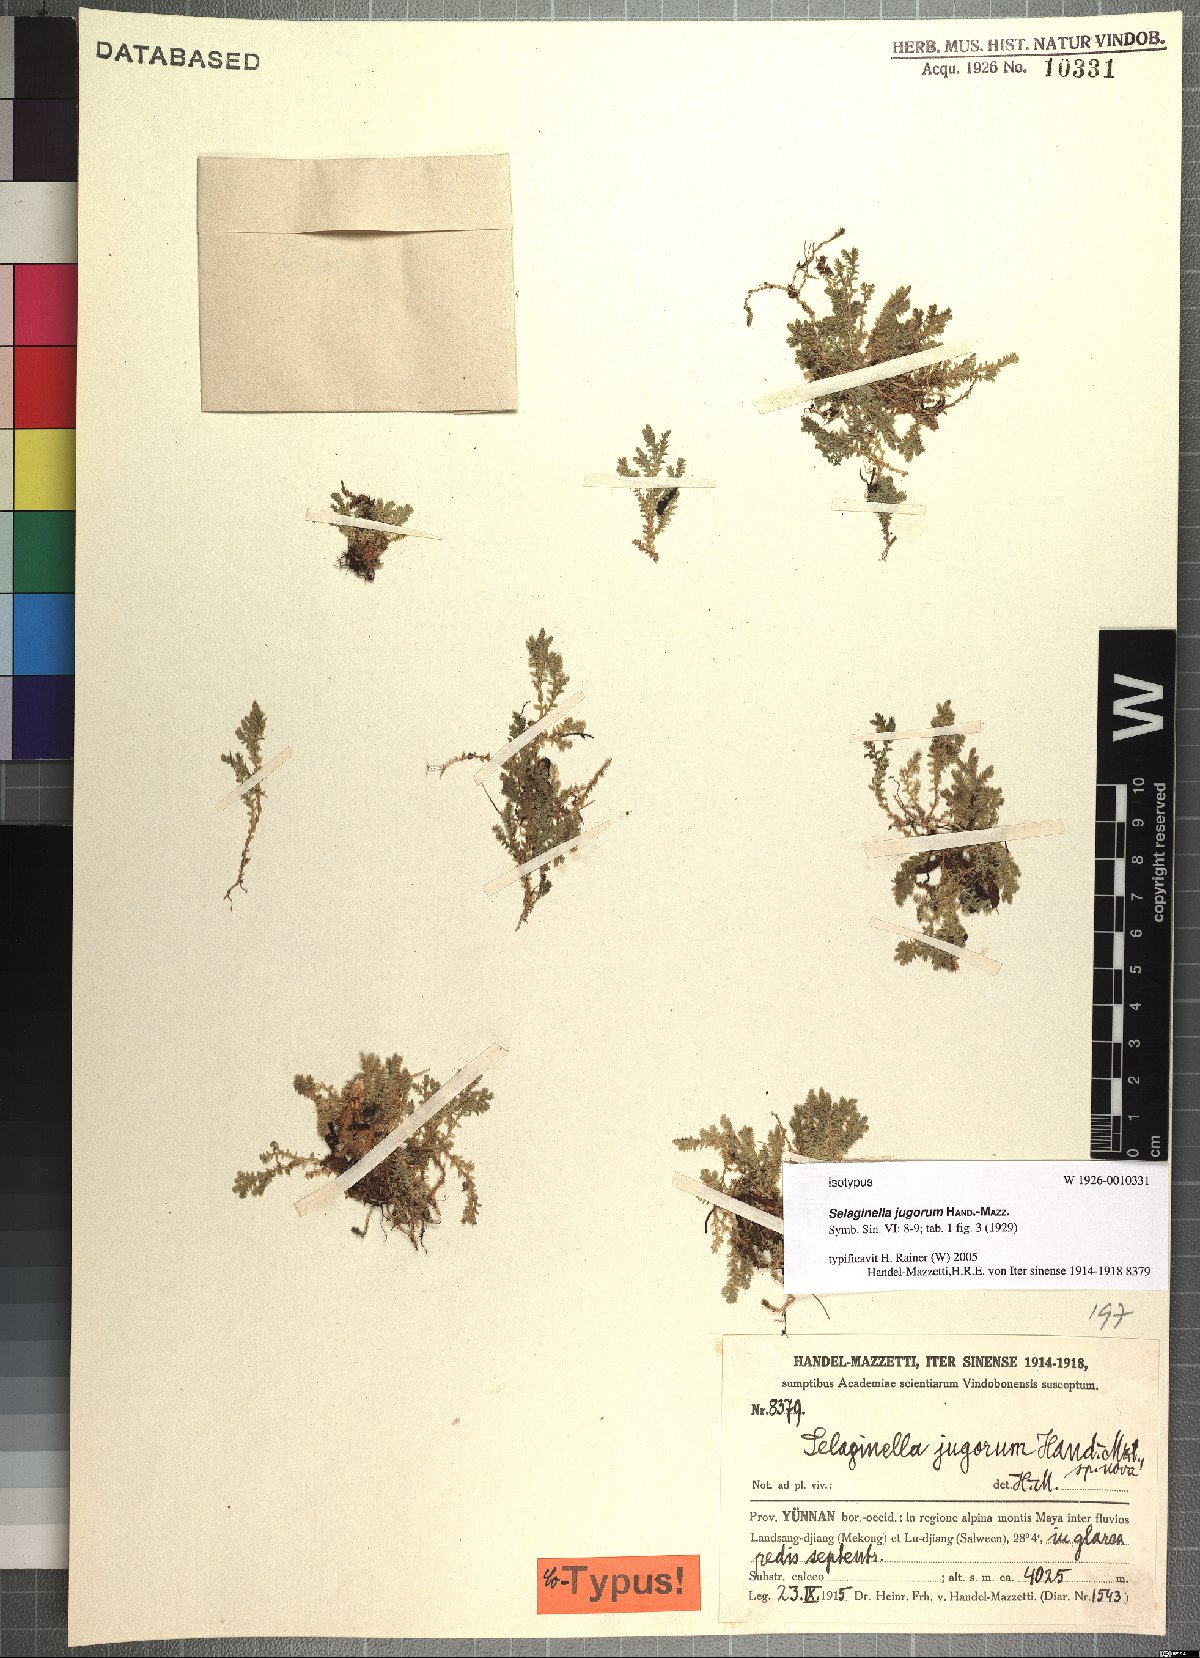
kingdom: Plantae
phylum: Tracheophyta
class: Lycopodiopsida
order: Selaginellales
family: Selaginellaceae
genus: Selaginella
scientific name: Selaginella jugorum
